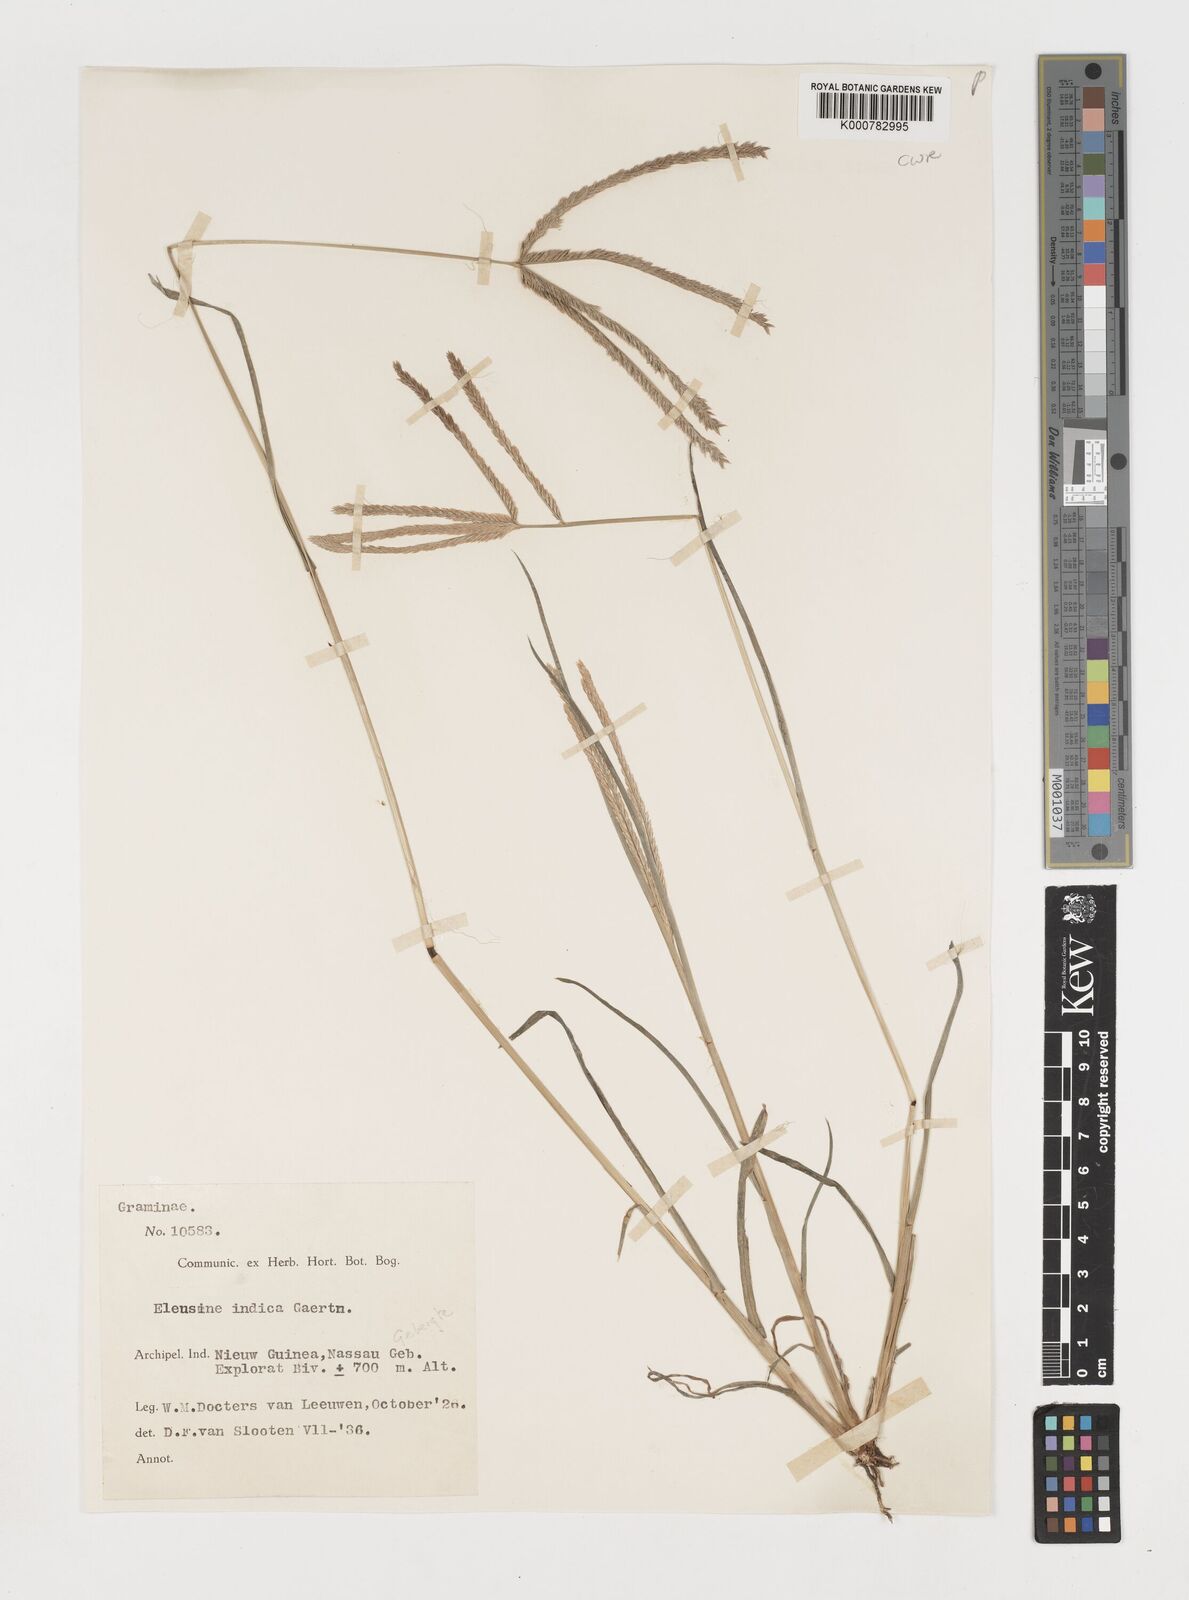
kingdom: Plantae
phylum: Tracheophyta
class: Liliopsida
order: Poales
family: Poaceae
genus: Eleusine
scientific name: Eleusine indica
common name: Yard-grass
